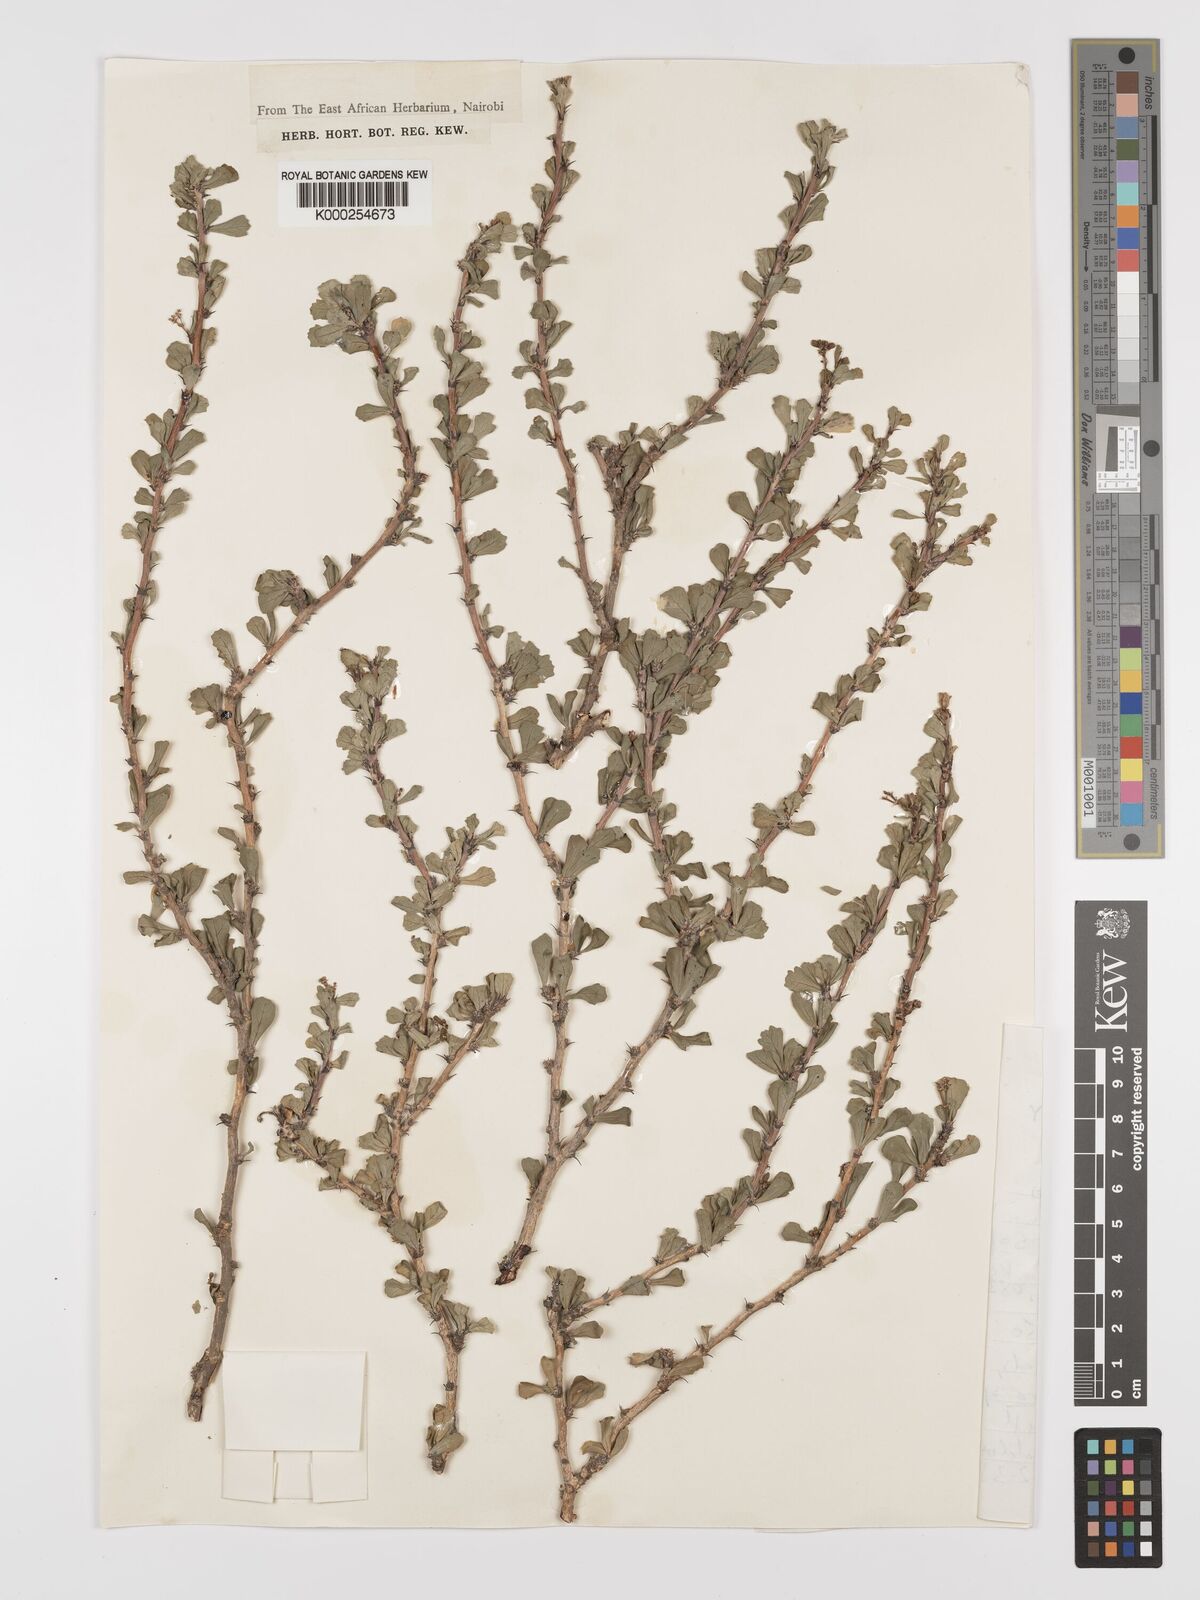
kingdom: Plantae
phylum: Tracheophyta
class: Magnoliopsida
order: Malpighiales
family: Euphorbiaceae
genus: Jatropha
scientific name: Jatropha rivae
